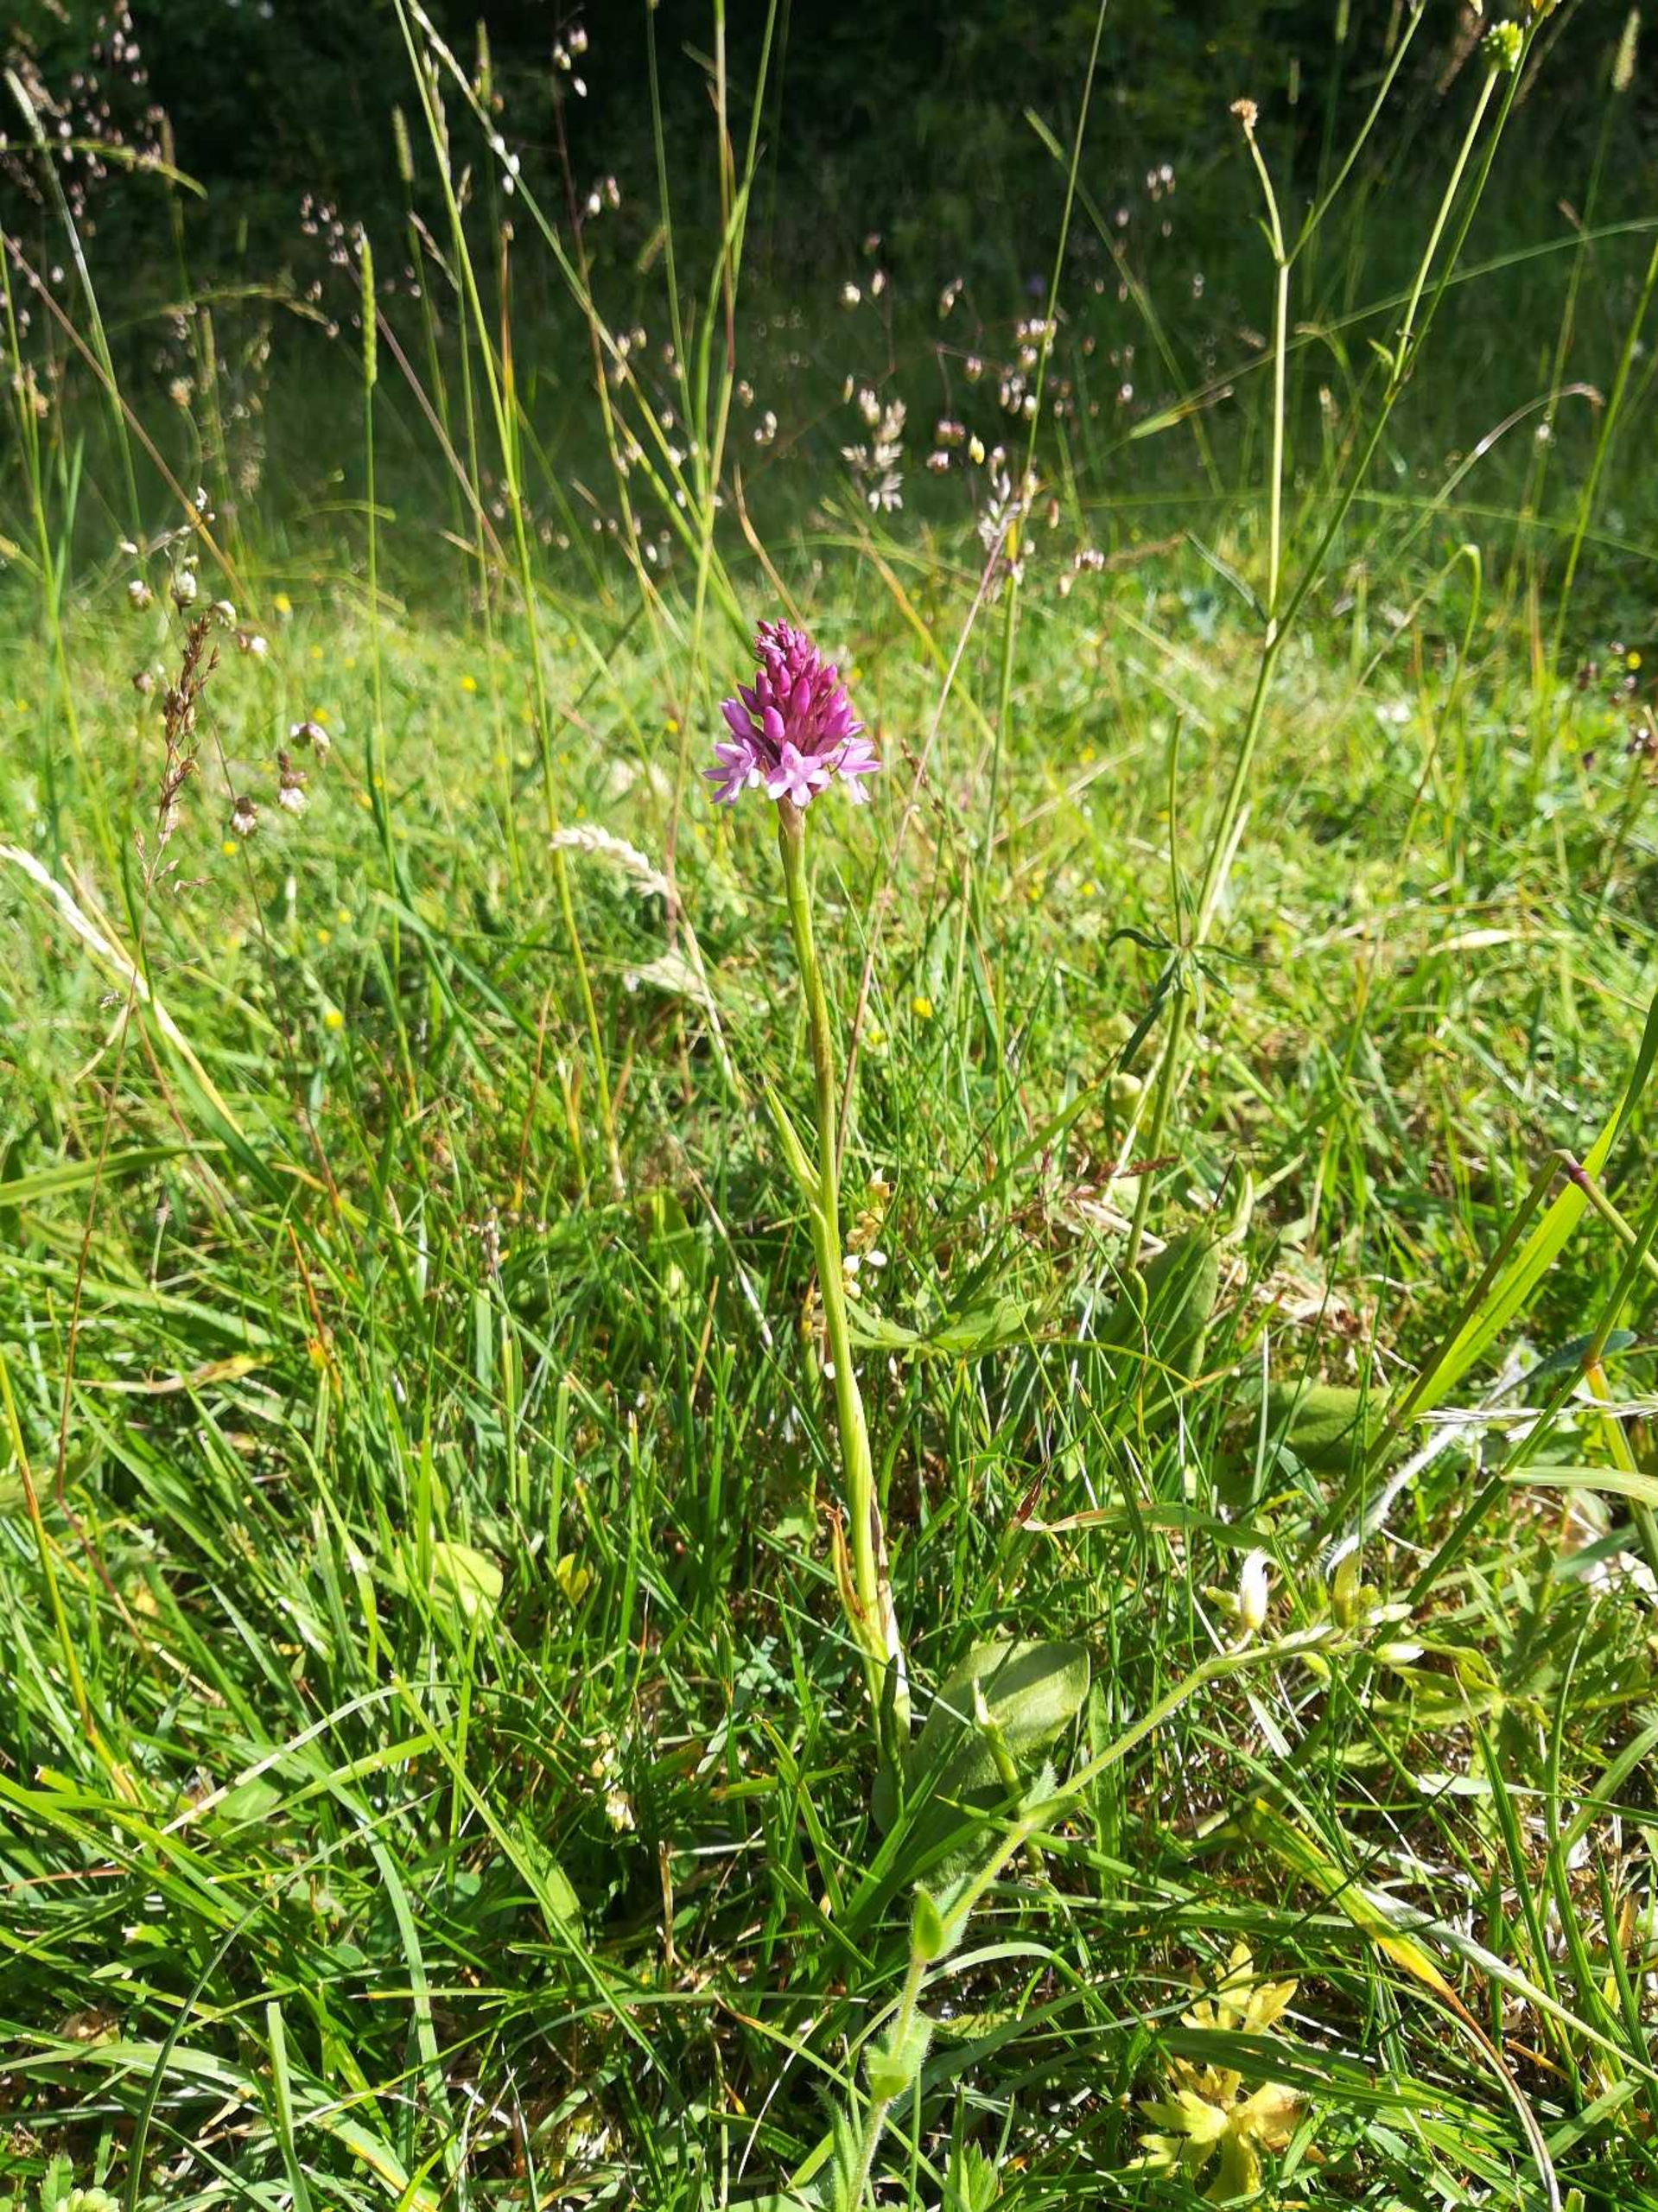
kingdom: Plantae
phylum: Tracheophyta
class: Liliopsida
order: Asparagales
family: Orchidaceae
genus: Anacamptis
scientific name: Anacamptis pyramidalis
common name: Horndrager
